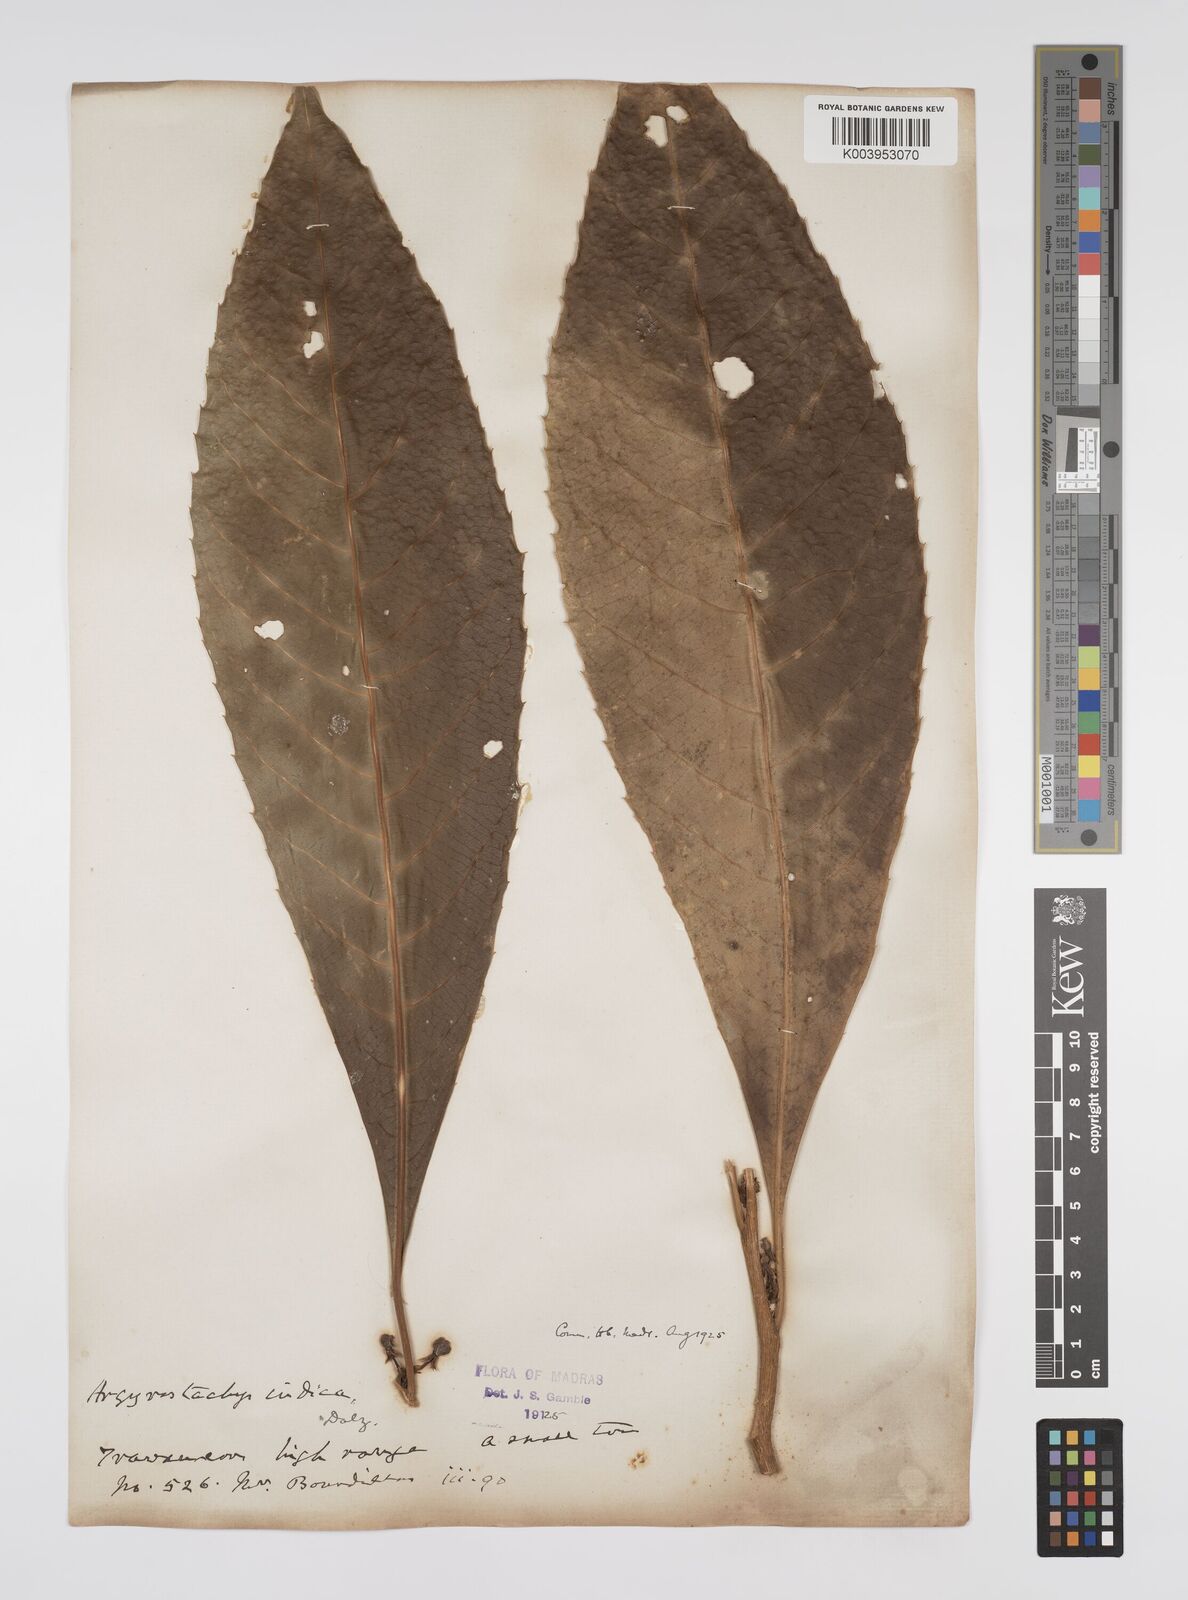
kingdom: Plantae
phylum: Tracheophyta
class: Magnoliopsida
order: Malpighiales
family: Euphorbiaceae
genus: Agrostistachys
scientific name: Agrostistachys indica
